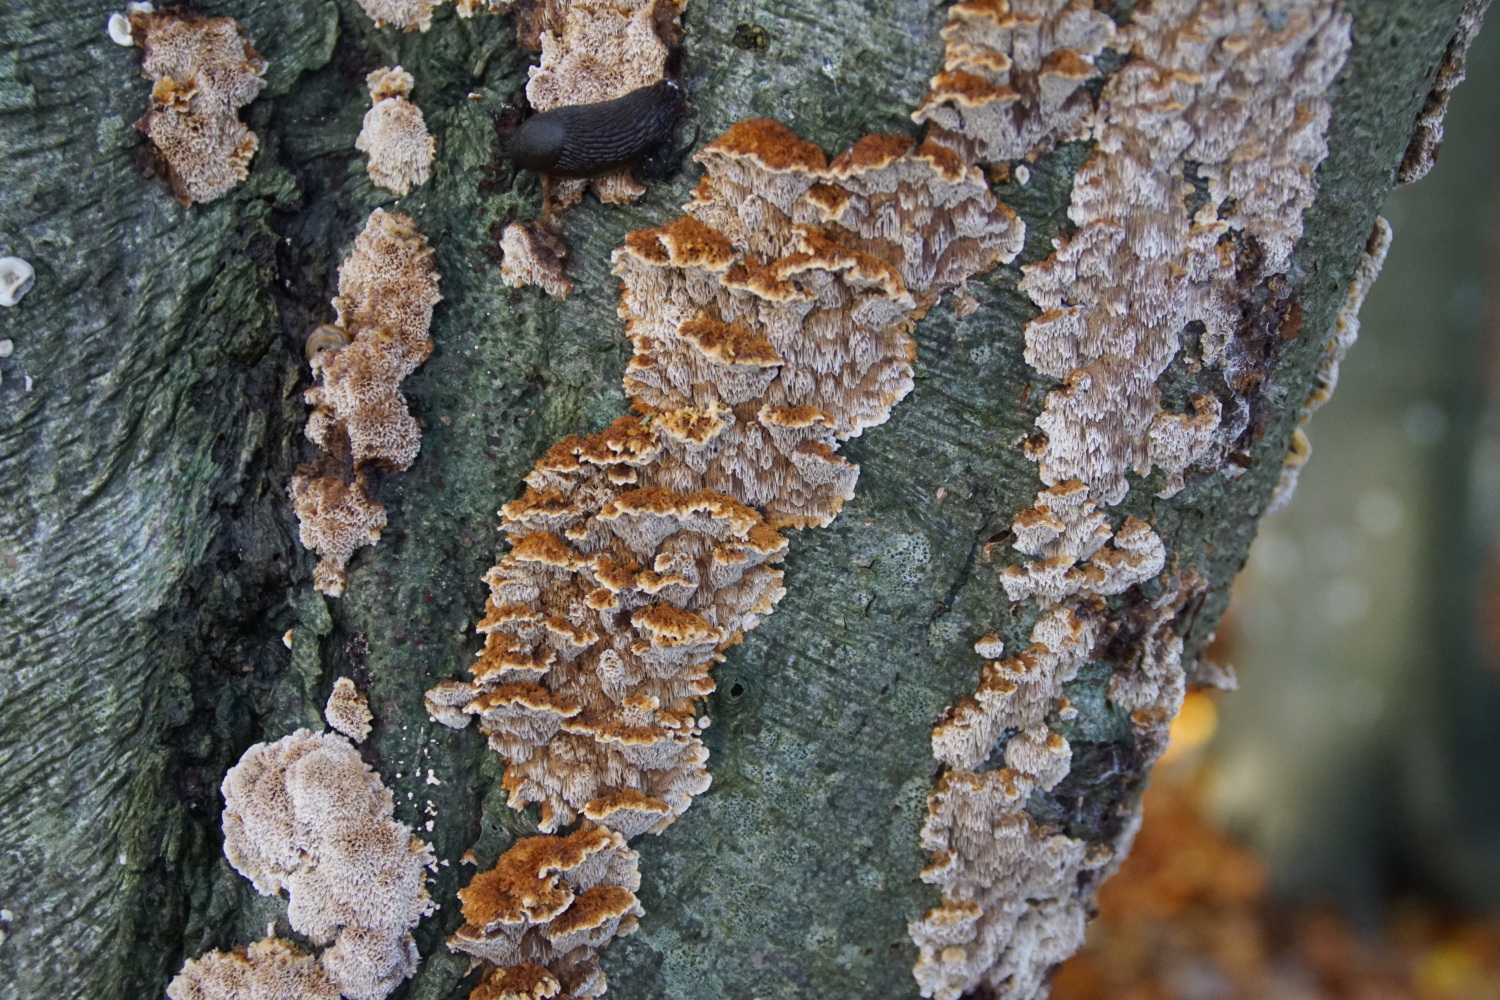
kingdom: Fungi
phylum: Basidiomycota
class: Agaricomycetes
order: Hymenochaetales
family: Hymenochaetaceae
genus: Mensularia
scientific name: Mensularia nodulosa
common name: bøge-spejlporesvamp
